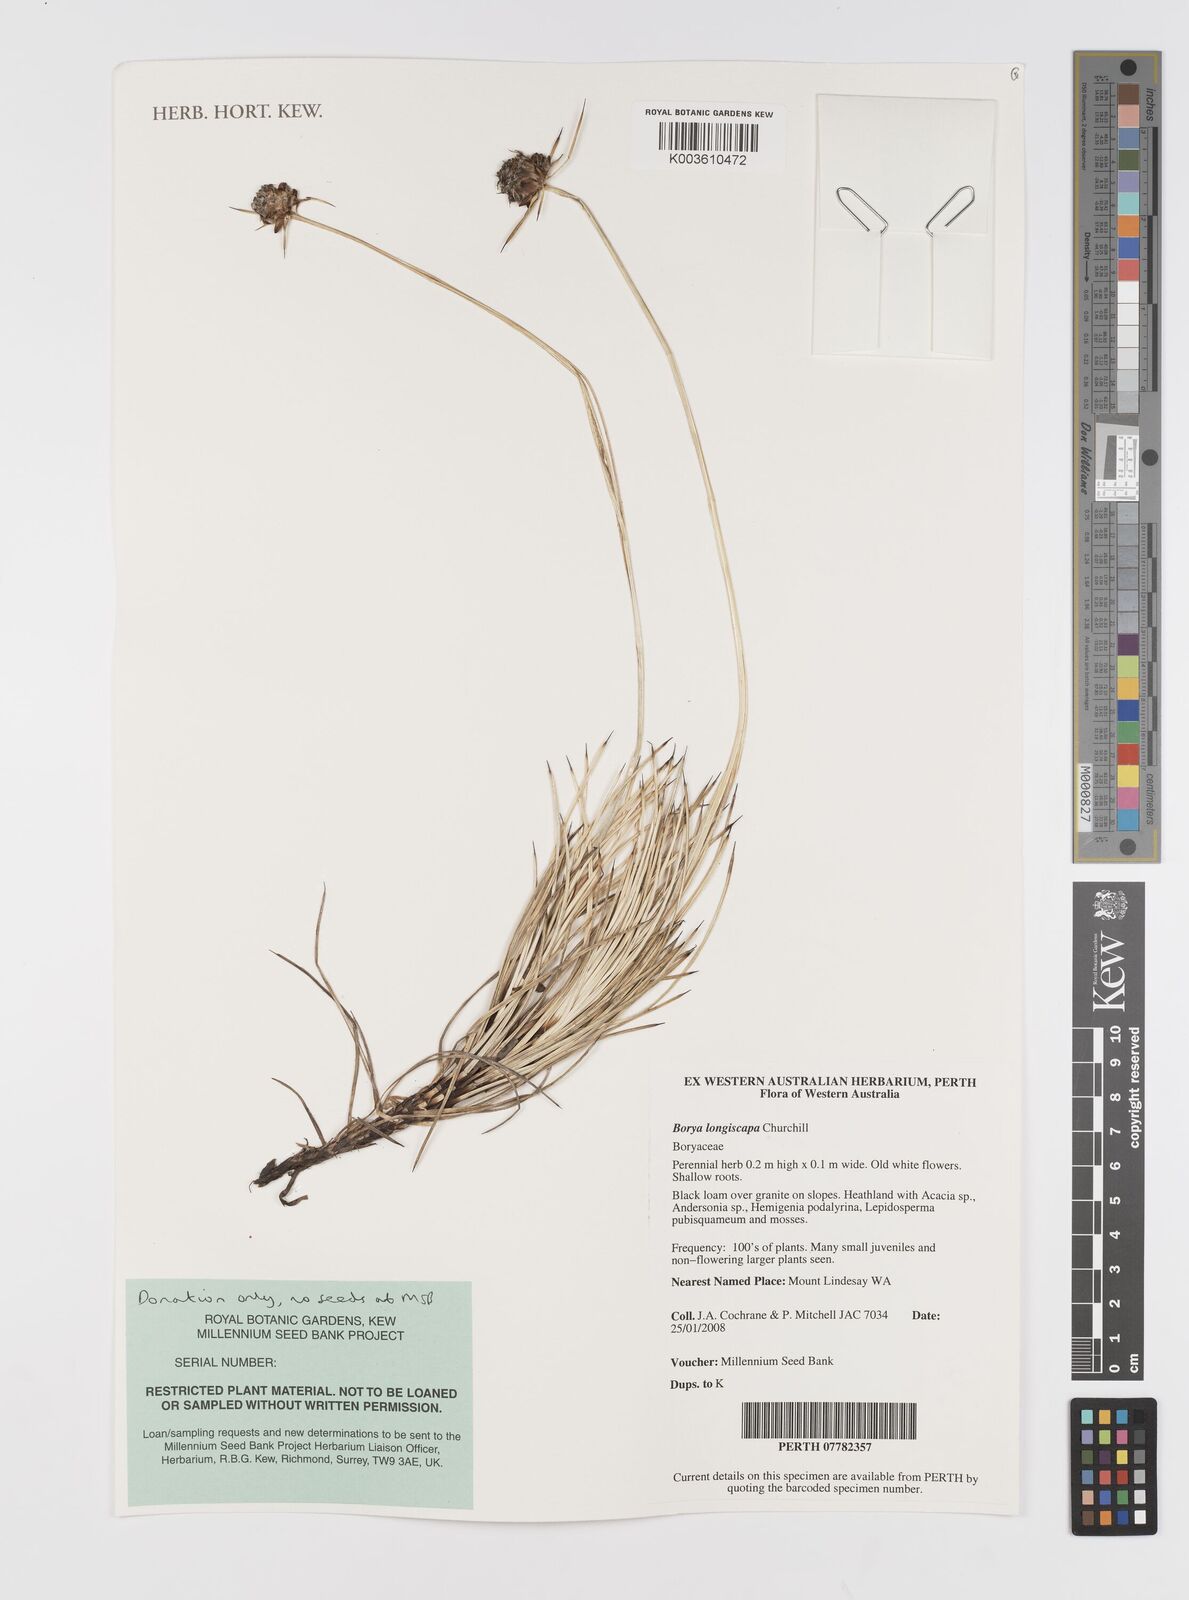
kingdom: Plantae
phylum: Tracheophyta
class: Liliopsida
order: Asparagales
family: Boryaceae
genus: Borya
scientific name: Borya longiscapa
